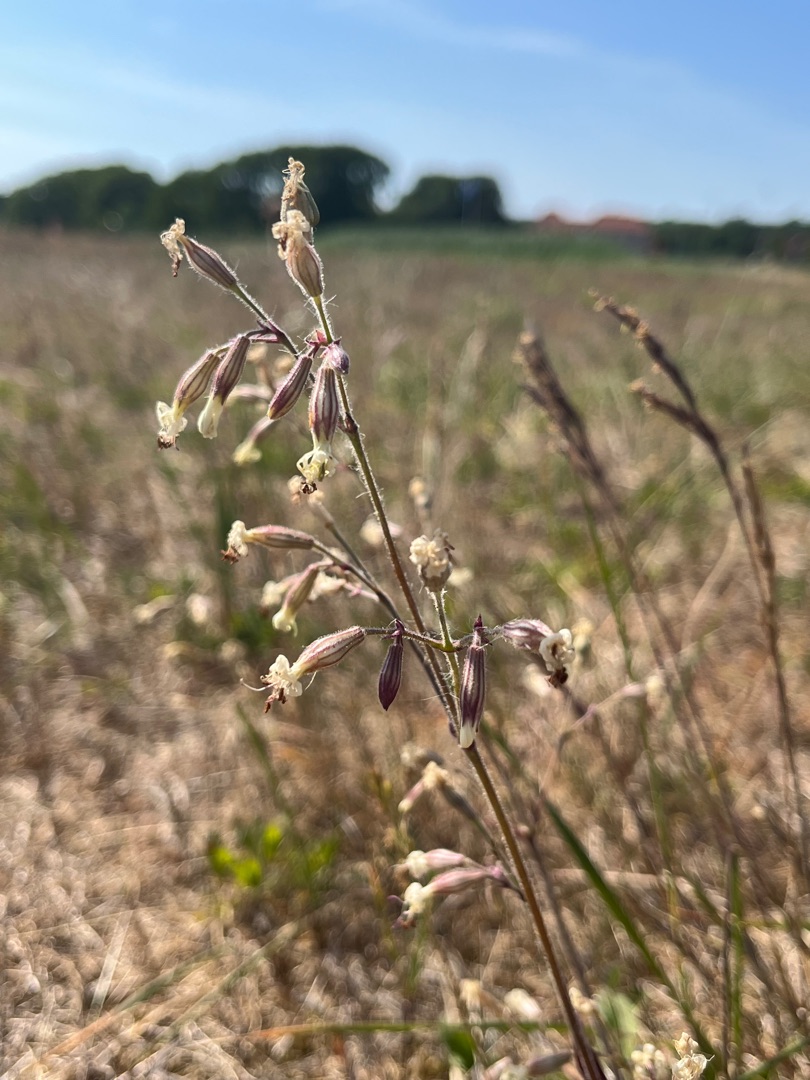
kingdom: Plantae
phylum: Tracheophyta
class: Magnoliopsida
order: Caryophyllales
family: Caryophyllaceae
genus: Silene
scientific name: Silene nutans
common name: Nikkende limurt
